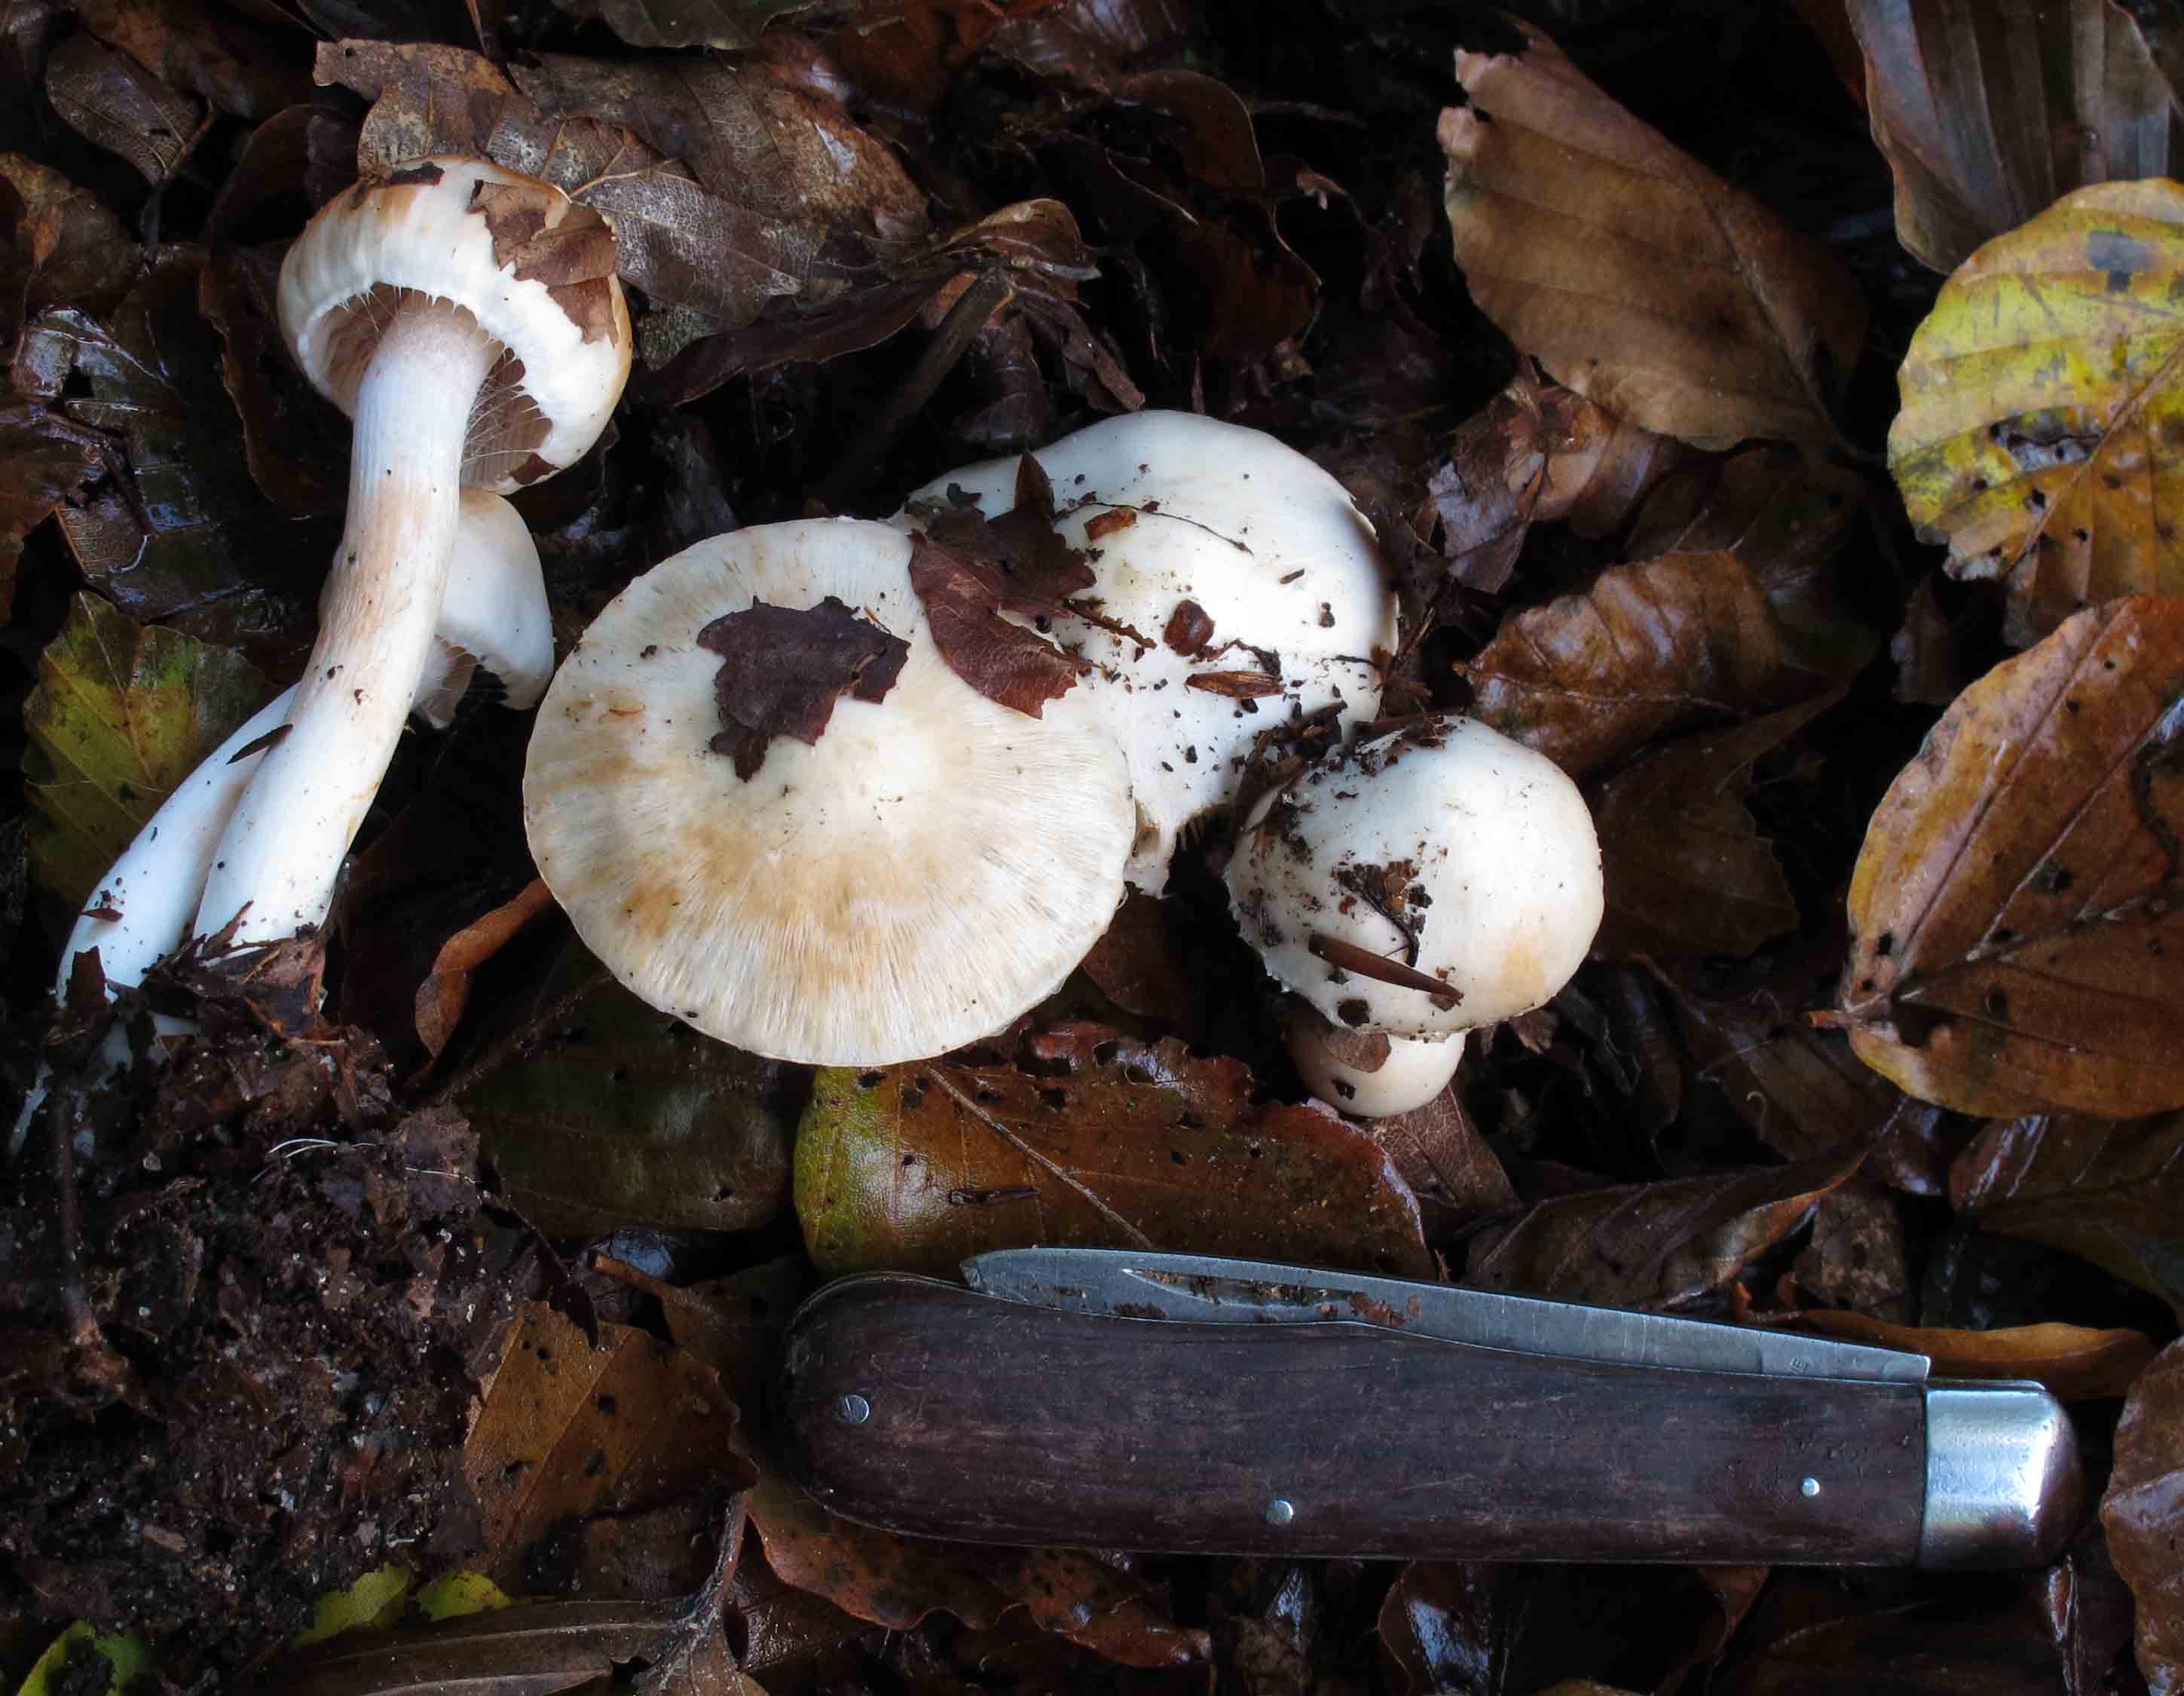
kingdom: Fungi
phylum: Basidiomycota
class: Agaricomycetes
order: Agaricales
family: Inocybaceae
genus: Inocybe
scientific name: Inocybe
